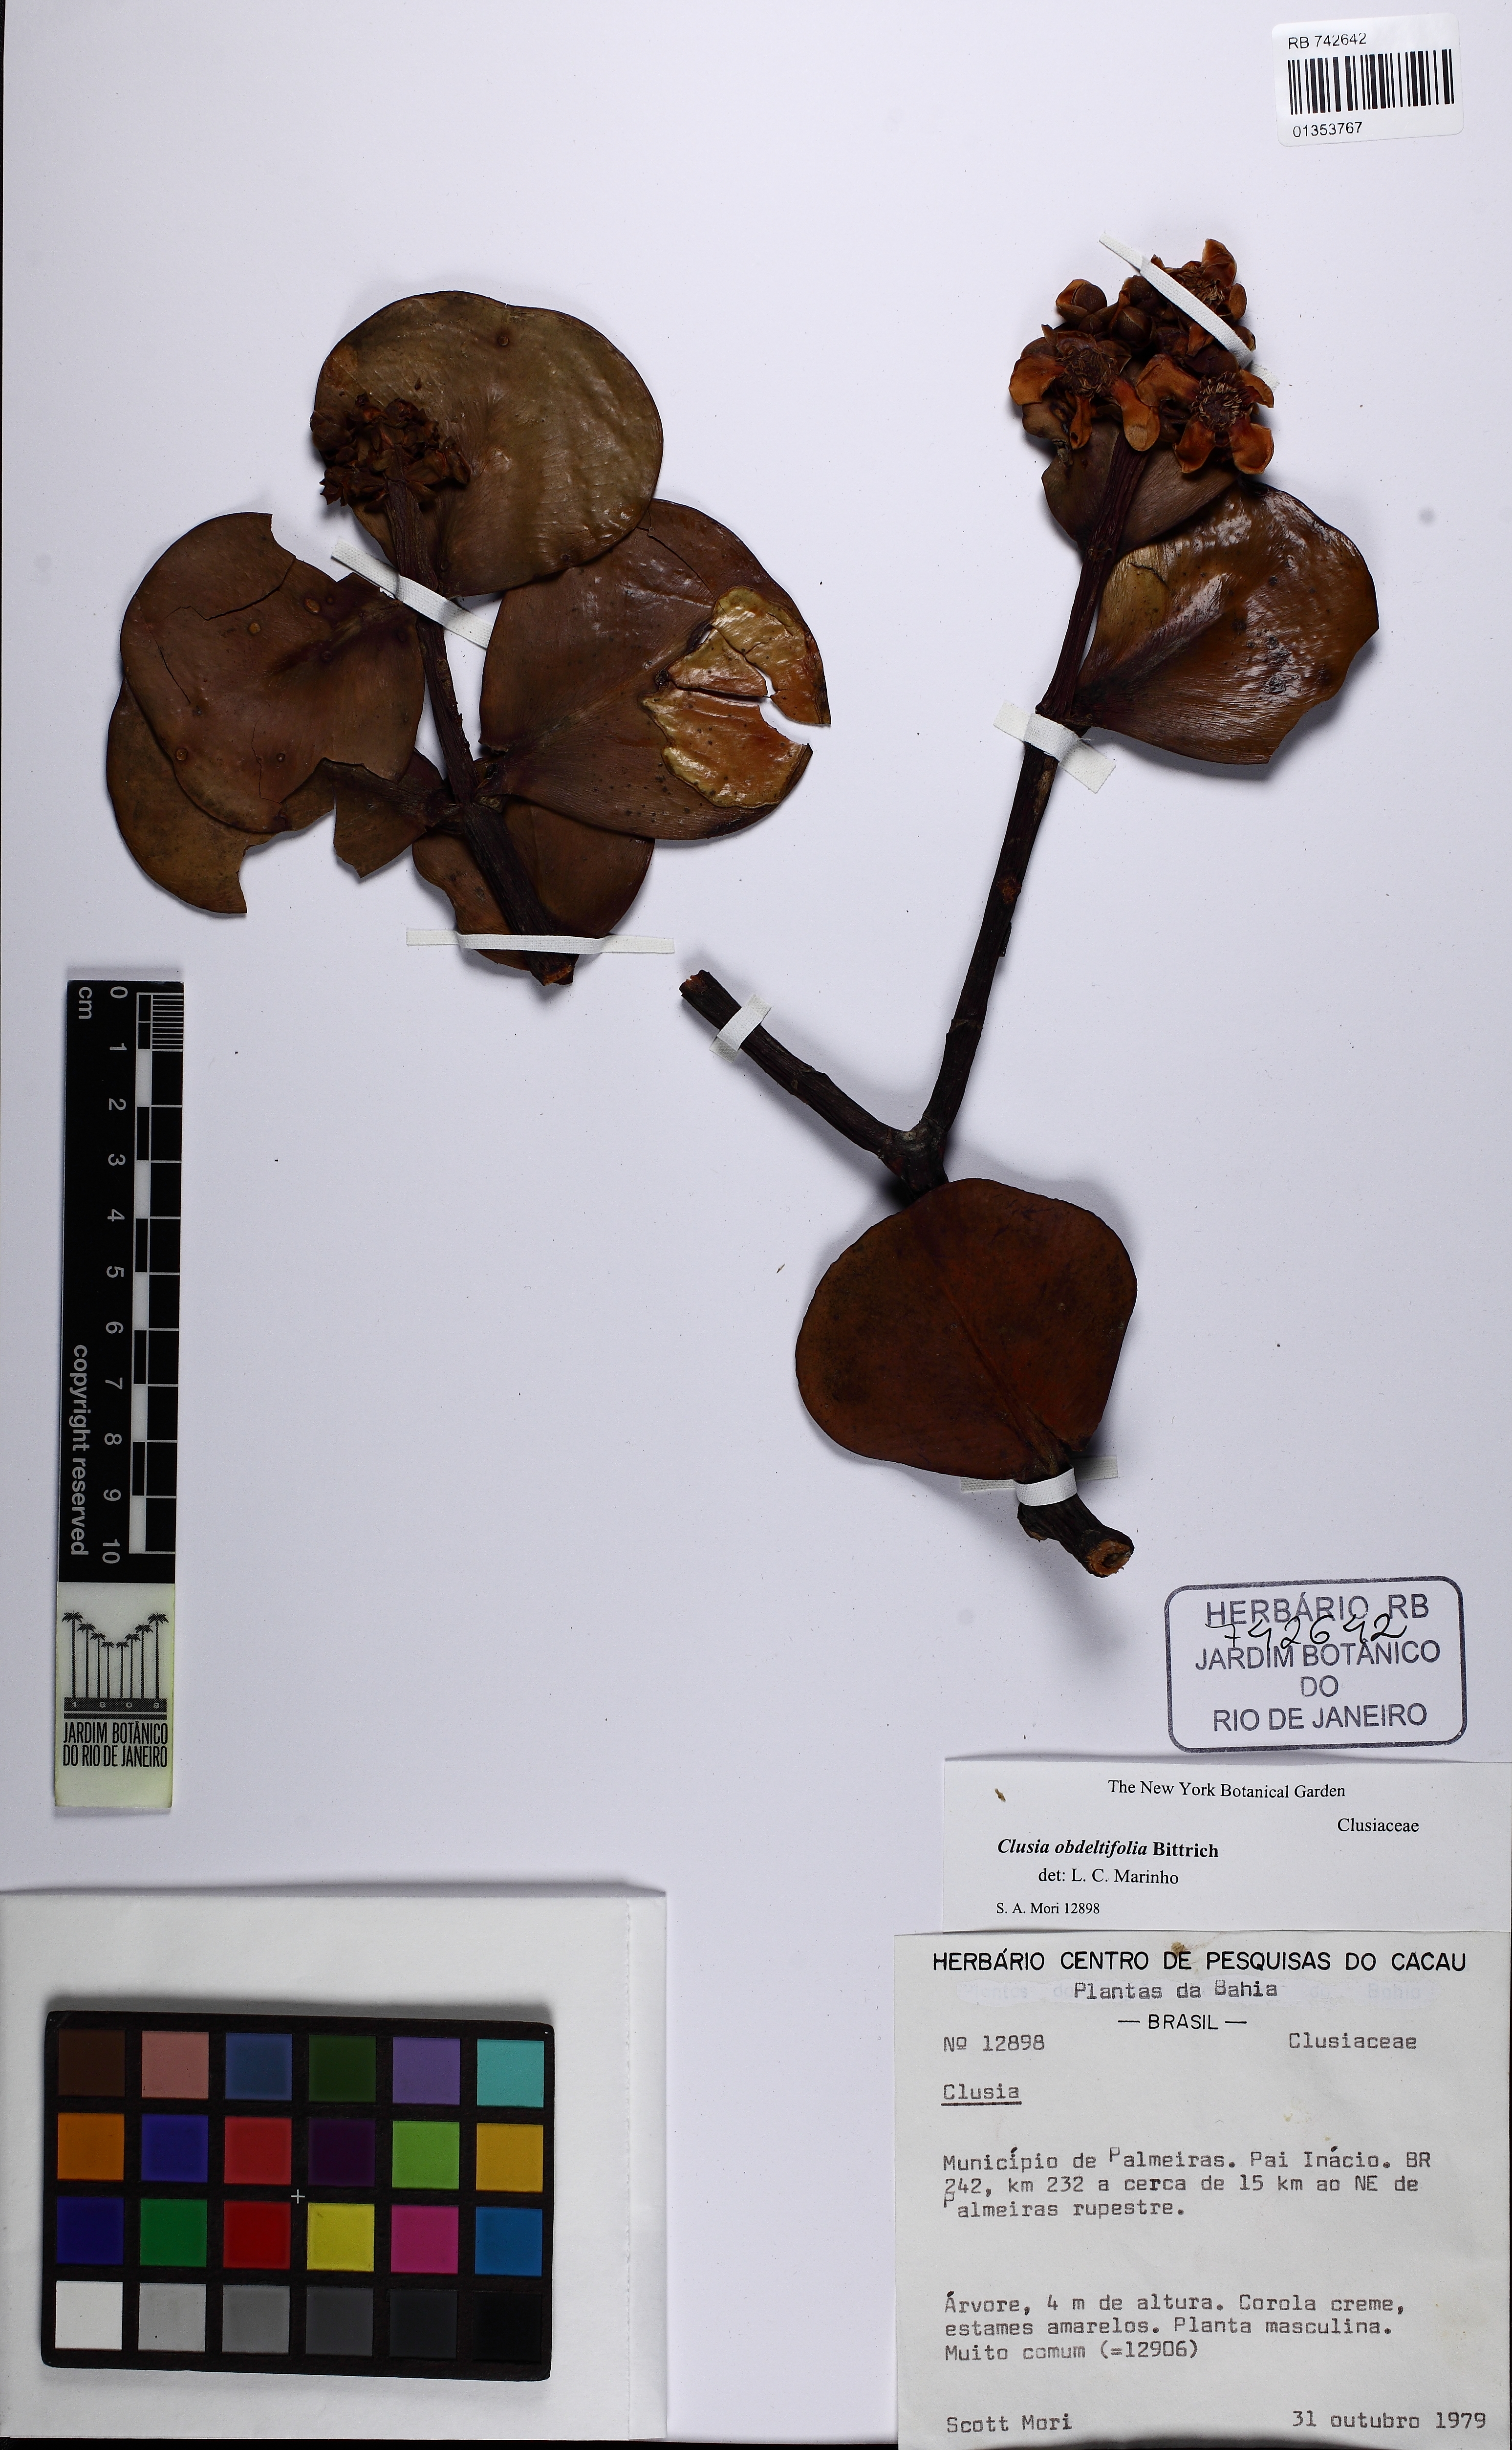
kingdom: Plantae
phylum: Tracheophyta
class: Magnoliopsida
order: Malpighiales
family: Clusiaceae
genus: Clusia
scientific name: Clusia obdeltifolia
